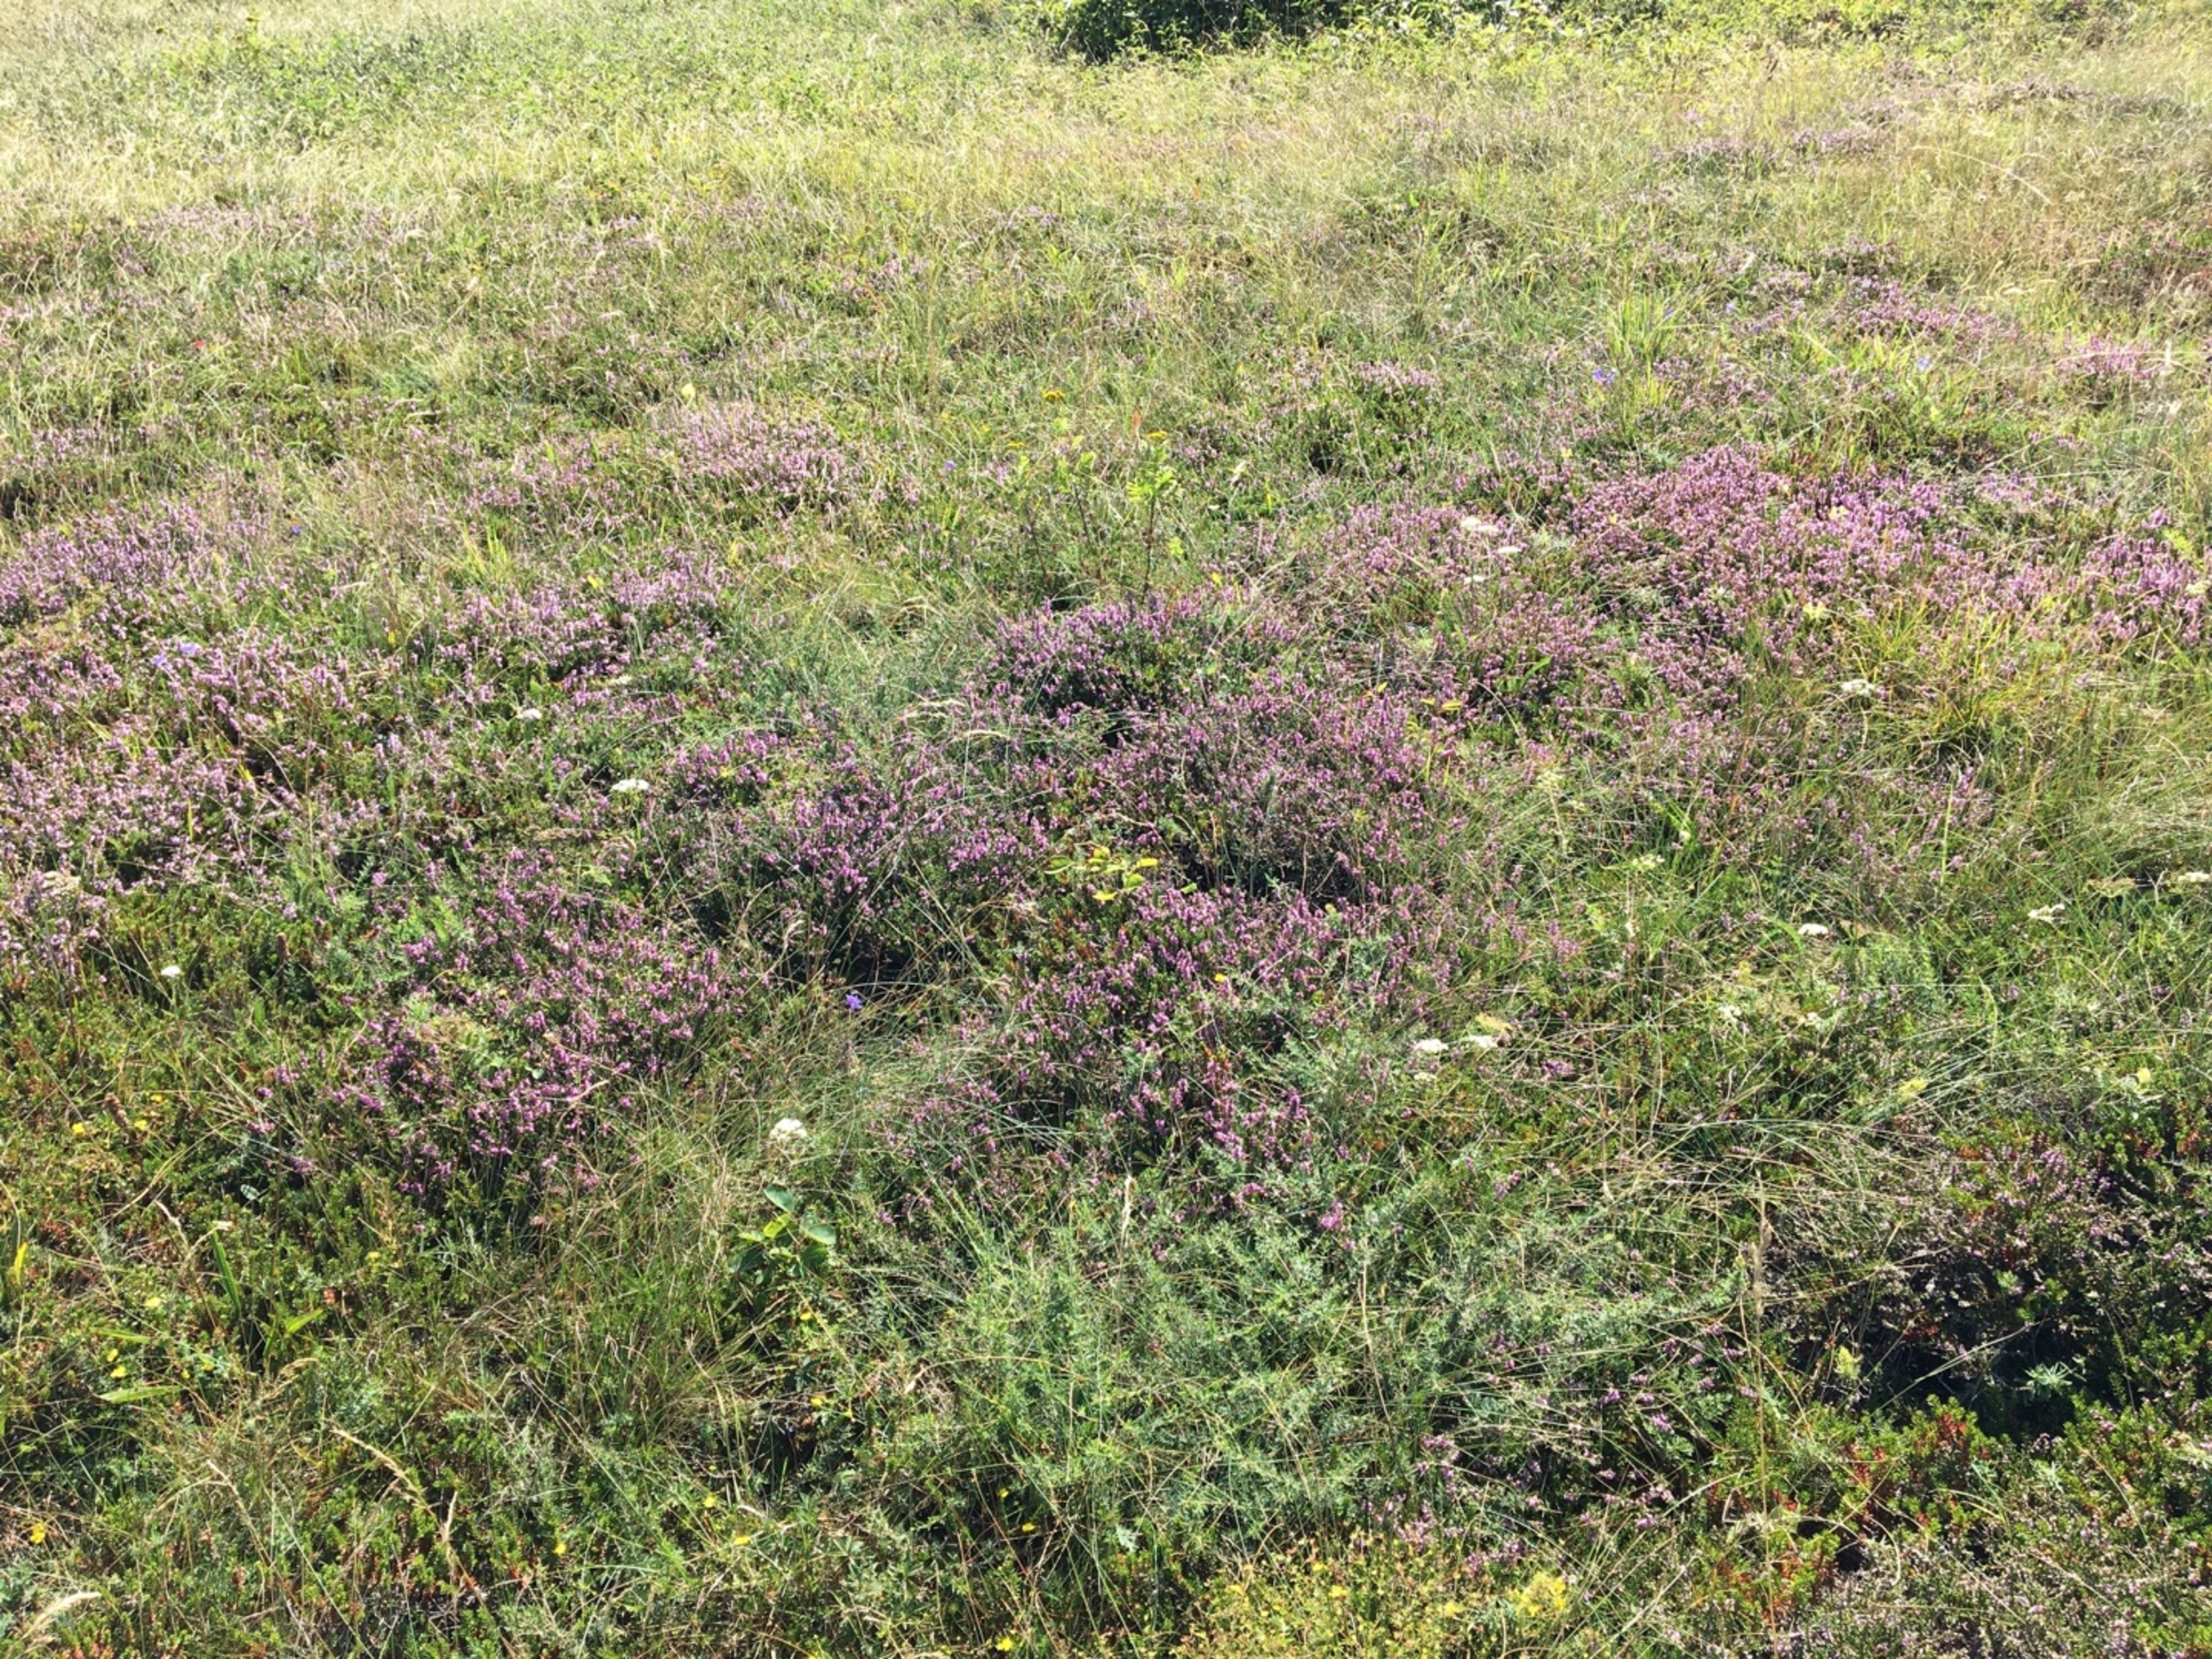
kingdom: Plantae
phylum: Tracheophyta
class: Magnoliopsida
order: Ericales
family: Ericaceae
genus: Calluna
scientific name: Calluna vulgaris
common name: Hedelyng
